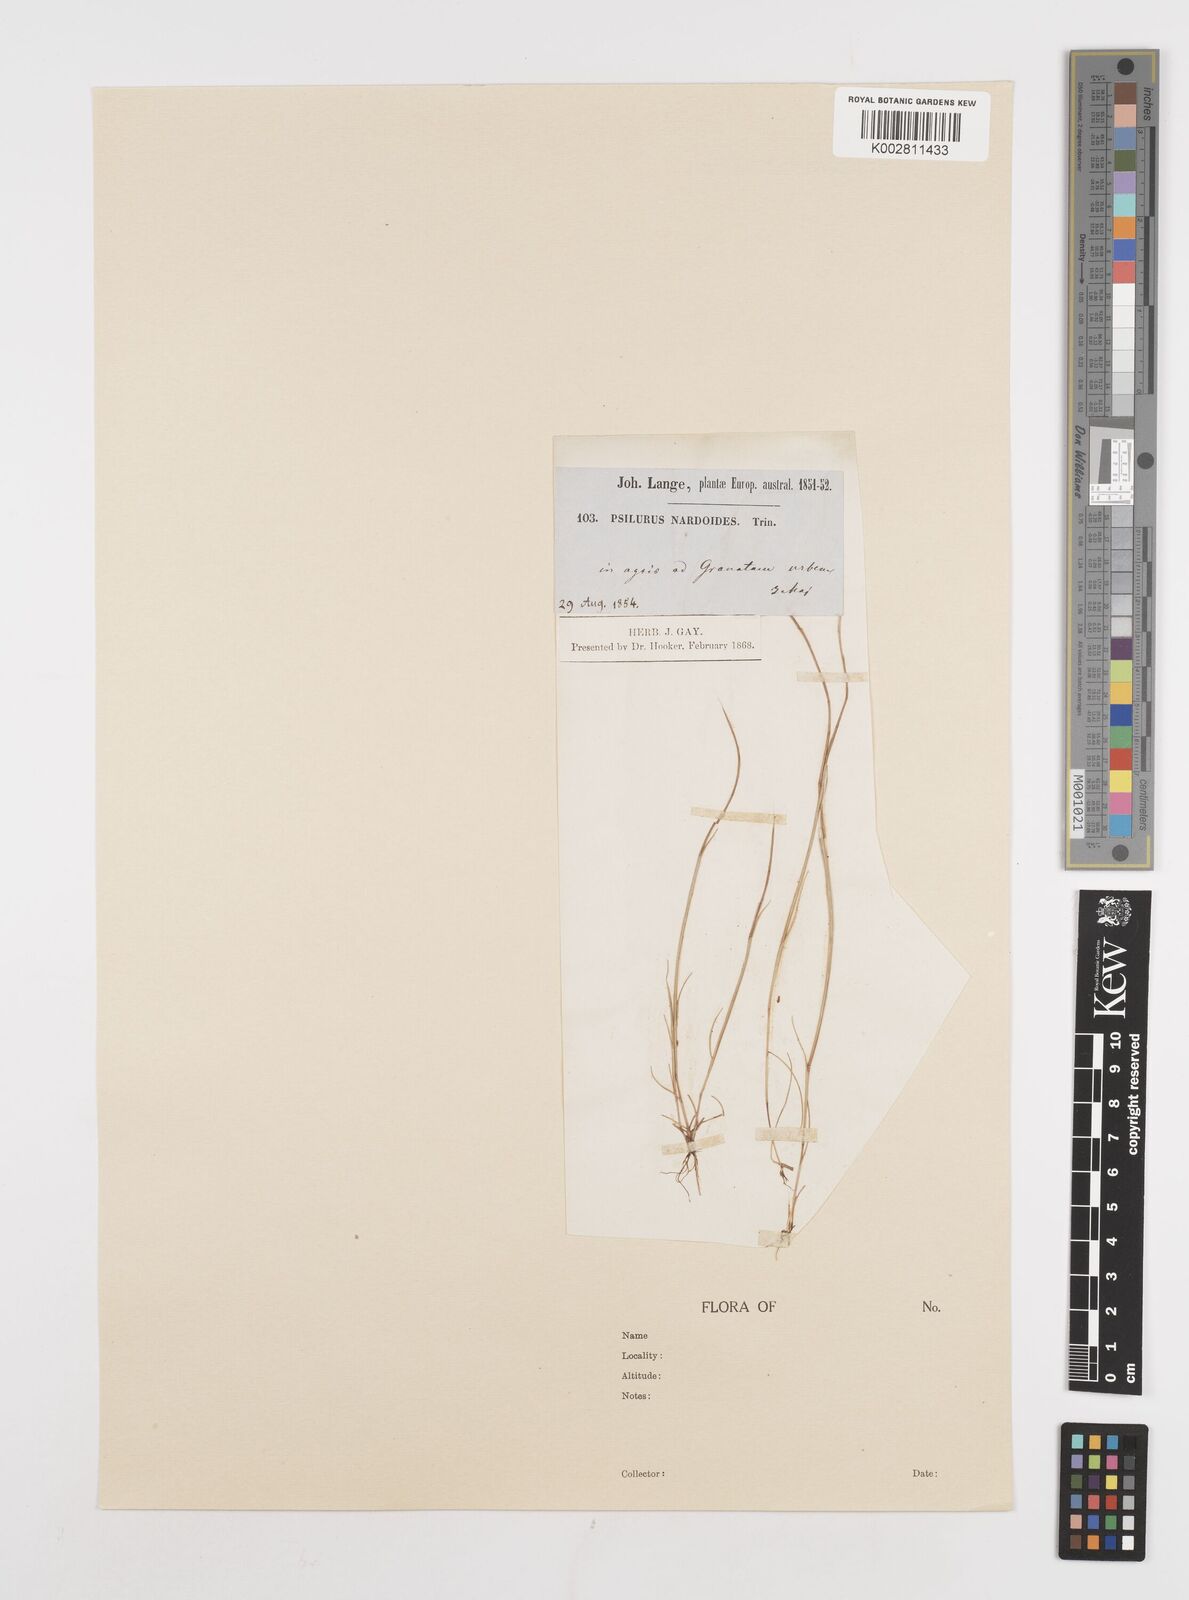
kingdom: Plantae
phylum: Tracheophyta
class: Liliopsida
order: Poales
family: Poaceae
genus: Festuca
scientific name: Festuca incurva
